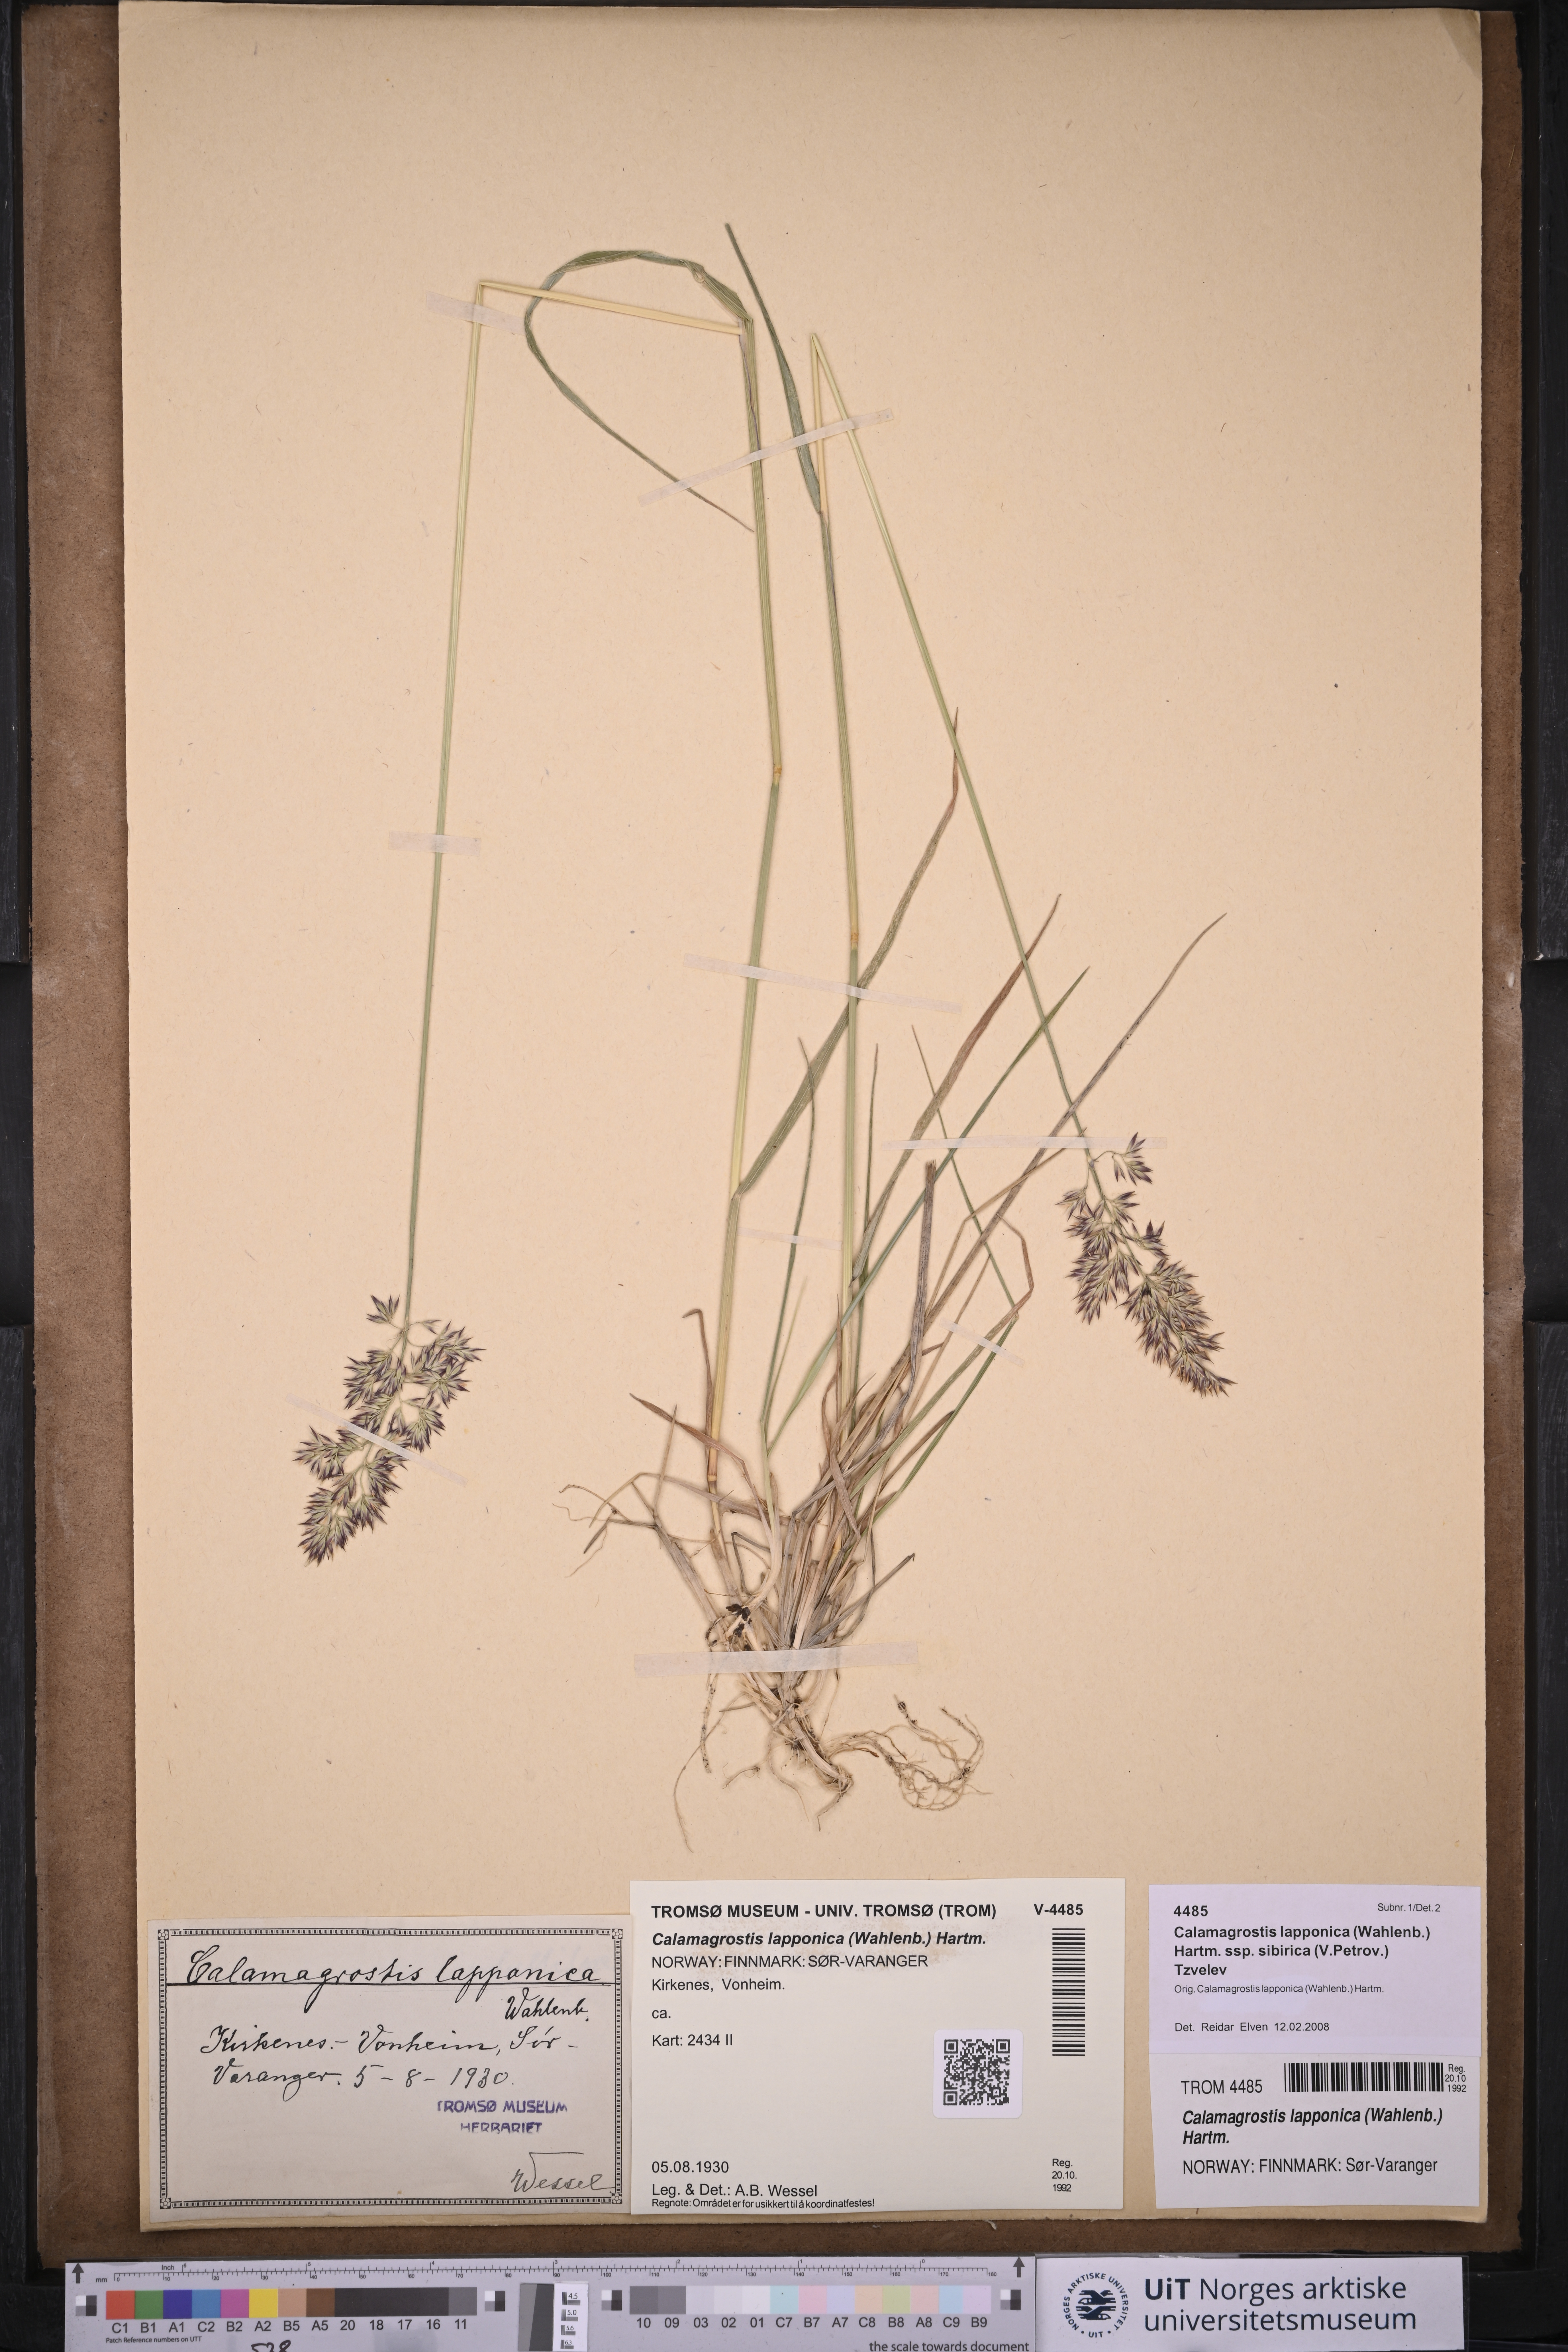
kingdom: Plantae
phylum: Tracheophyta
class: Liliopsida
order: Poales
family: Poaceae
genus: Calamagrostis
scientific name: Calamagrostis lapponica
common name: Lapland reedgrass
